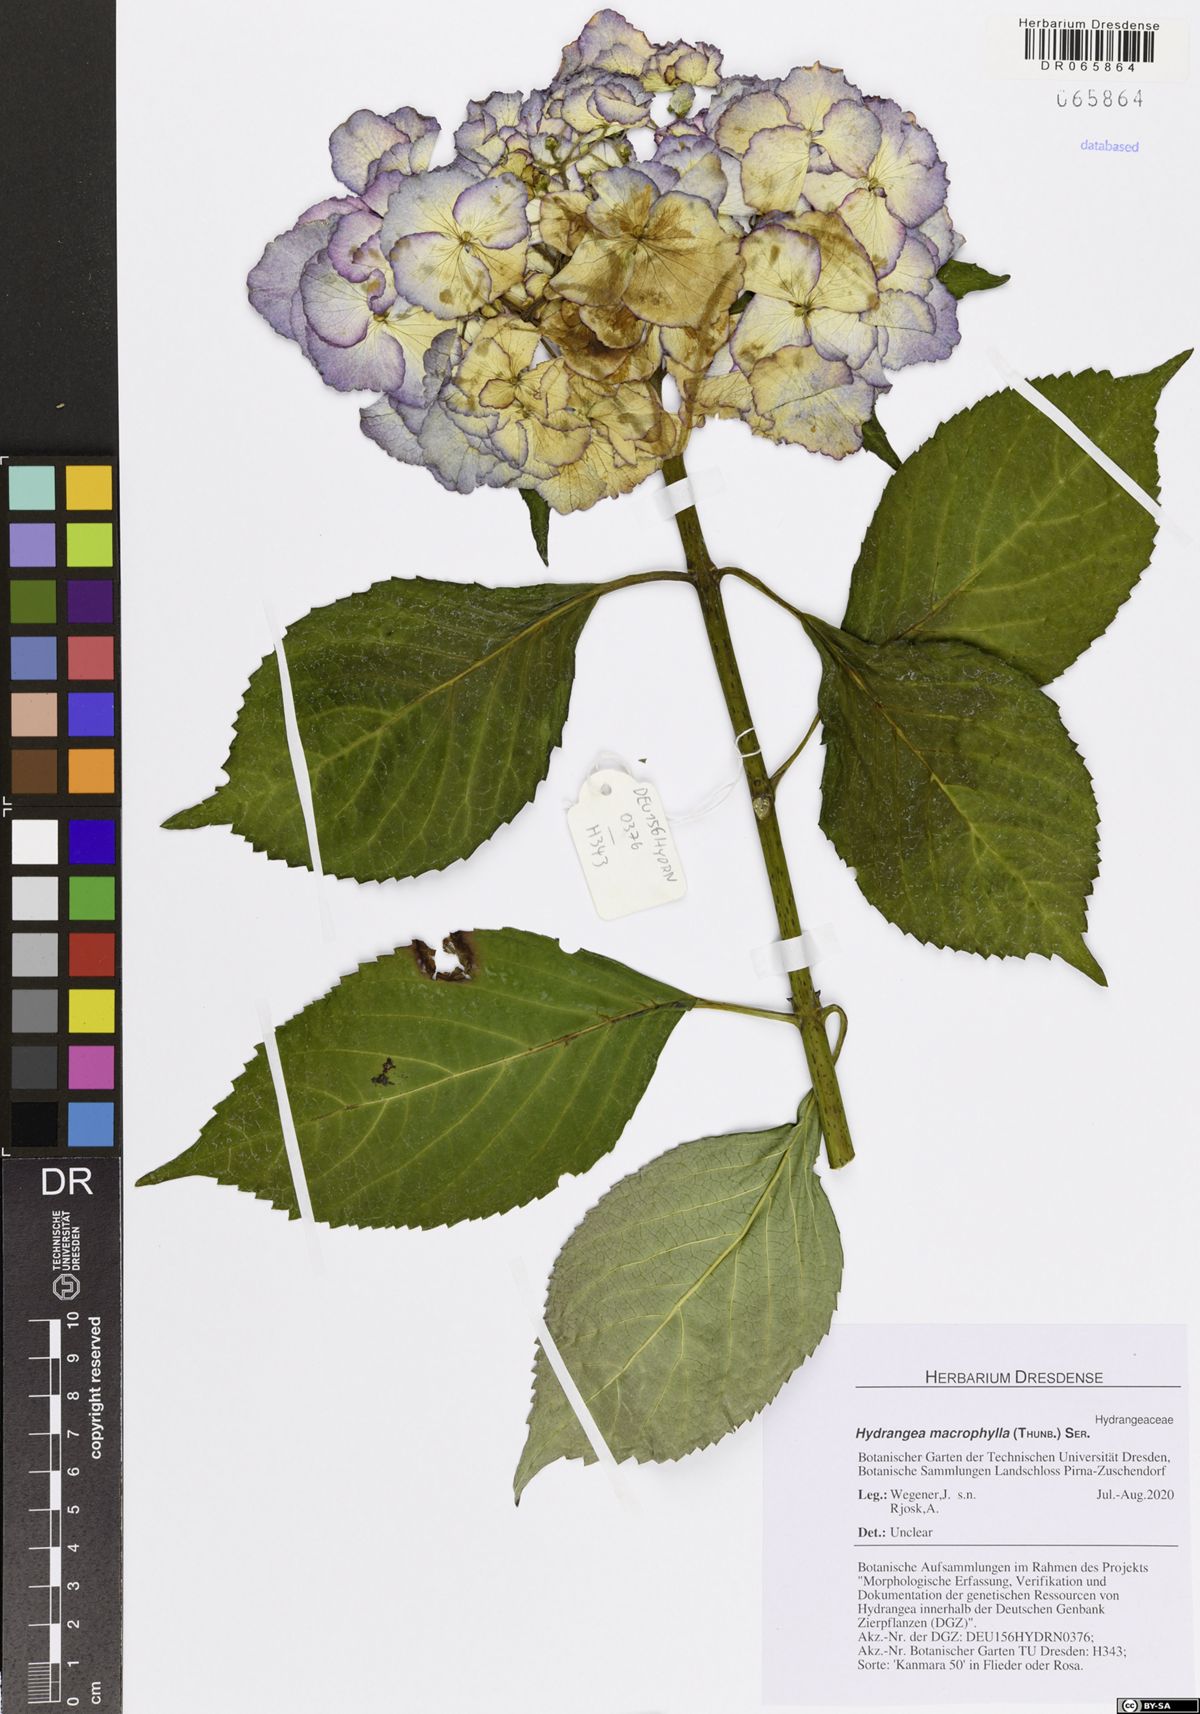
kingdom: Plantae
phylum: Tracheophyta
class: Magnoliopsida
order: Cornales
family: Hydrangeaceae
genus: Hydrangea
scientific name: Hydrangea macrophylla
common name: Hydrangea
